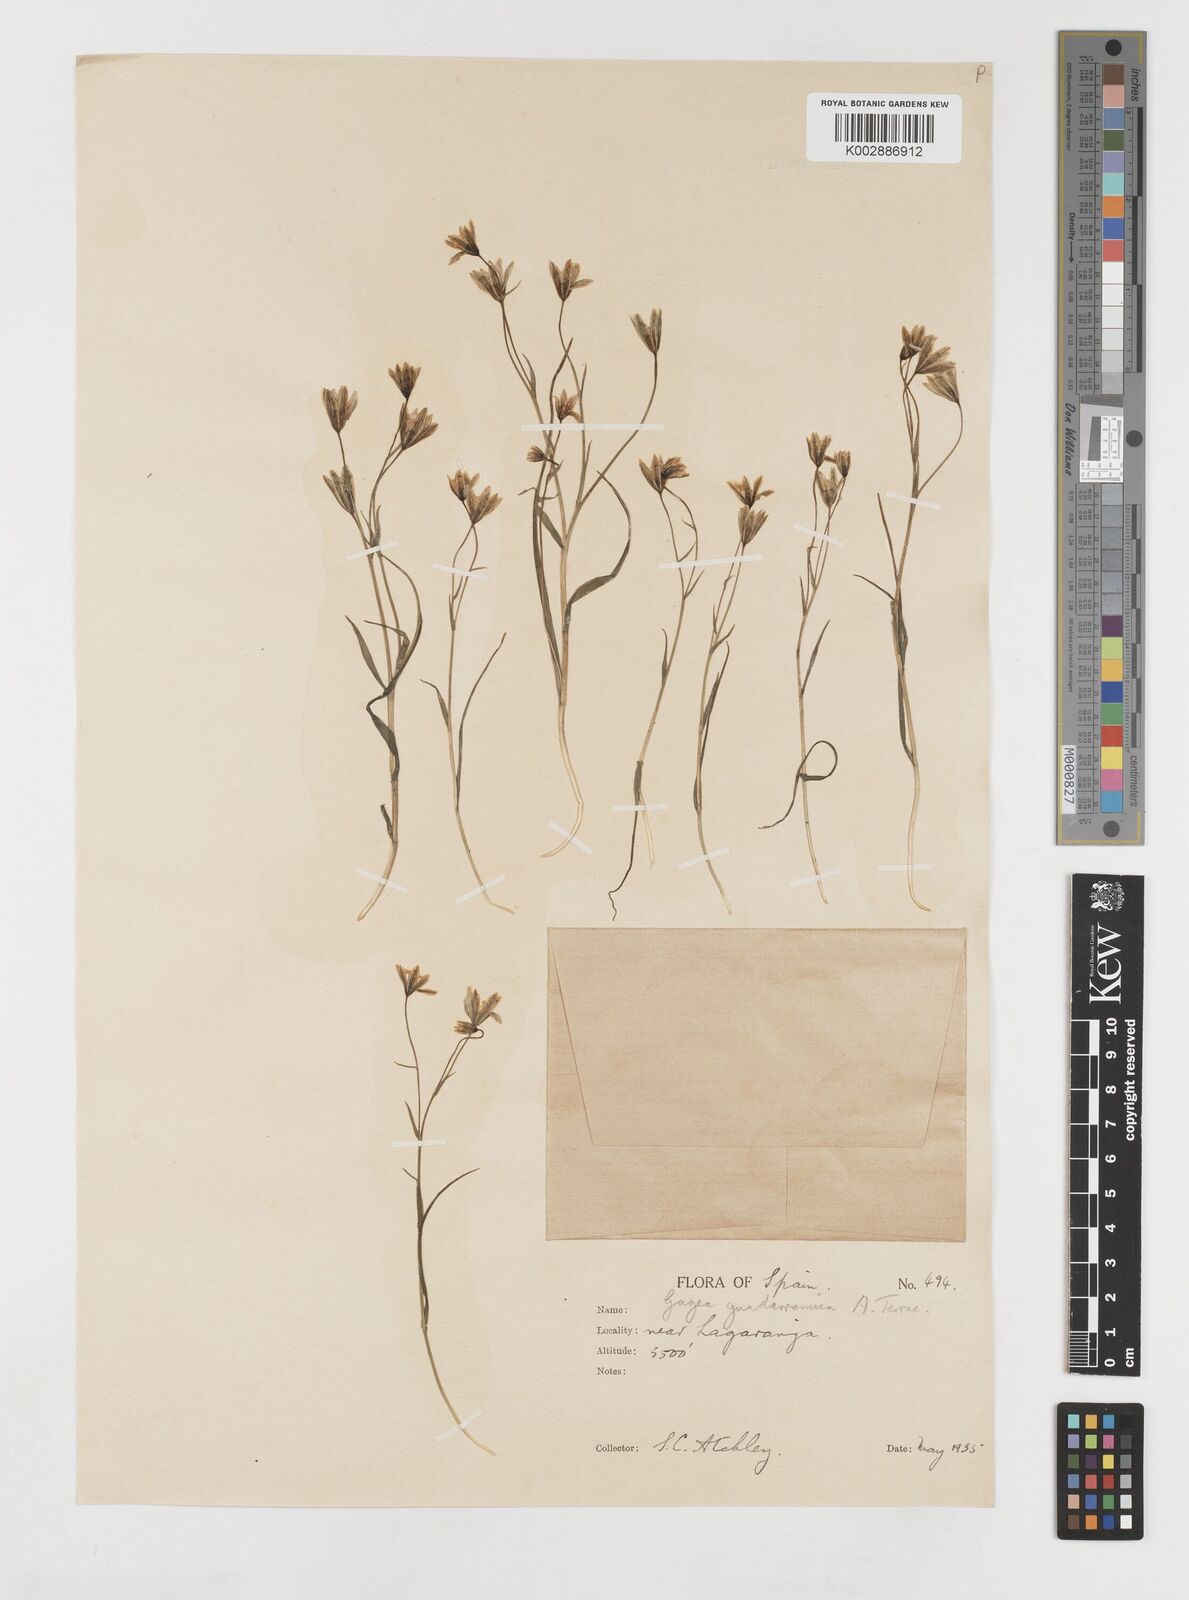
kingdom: Plantae
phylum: Tracheophyta
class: Liliopsida
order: Liliales
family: Liliaceae
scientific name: Liliaceae
